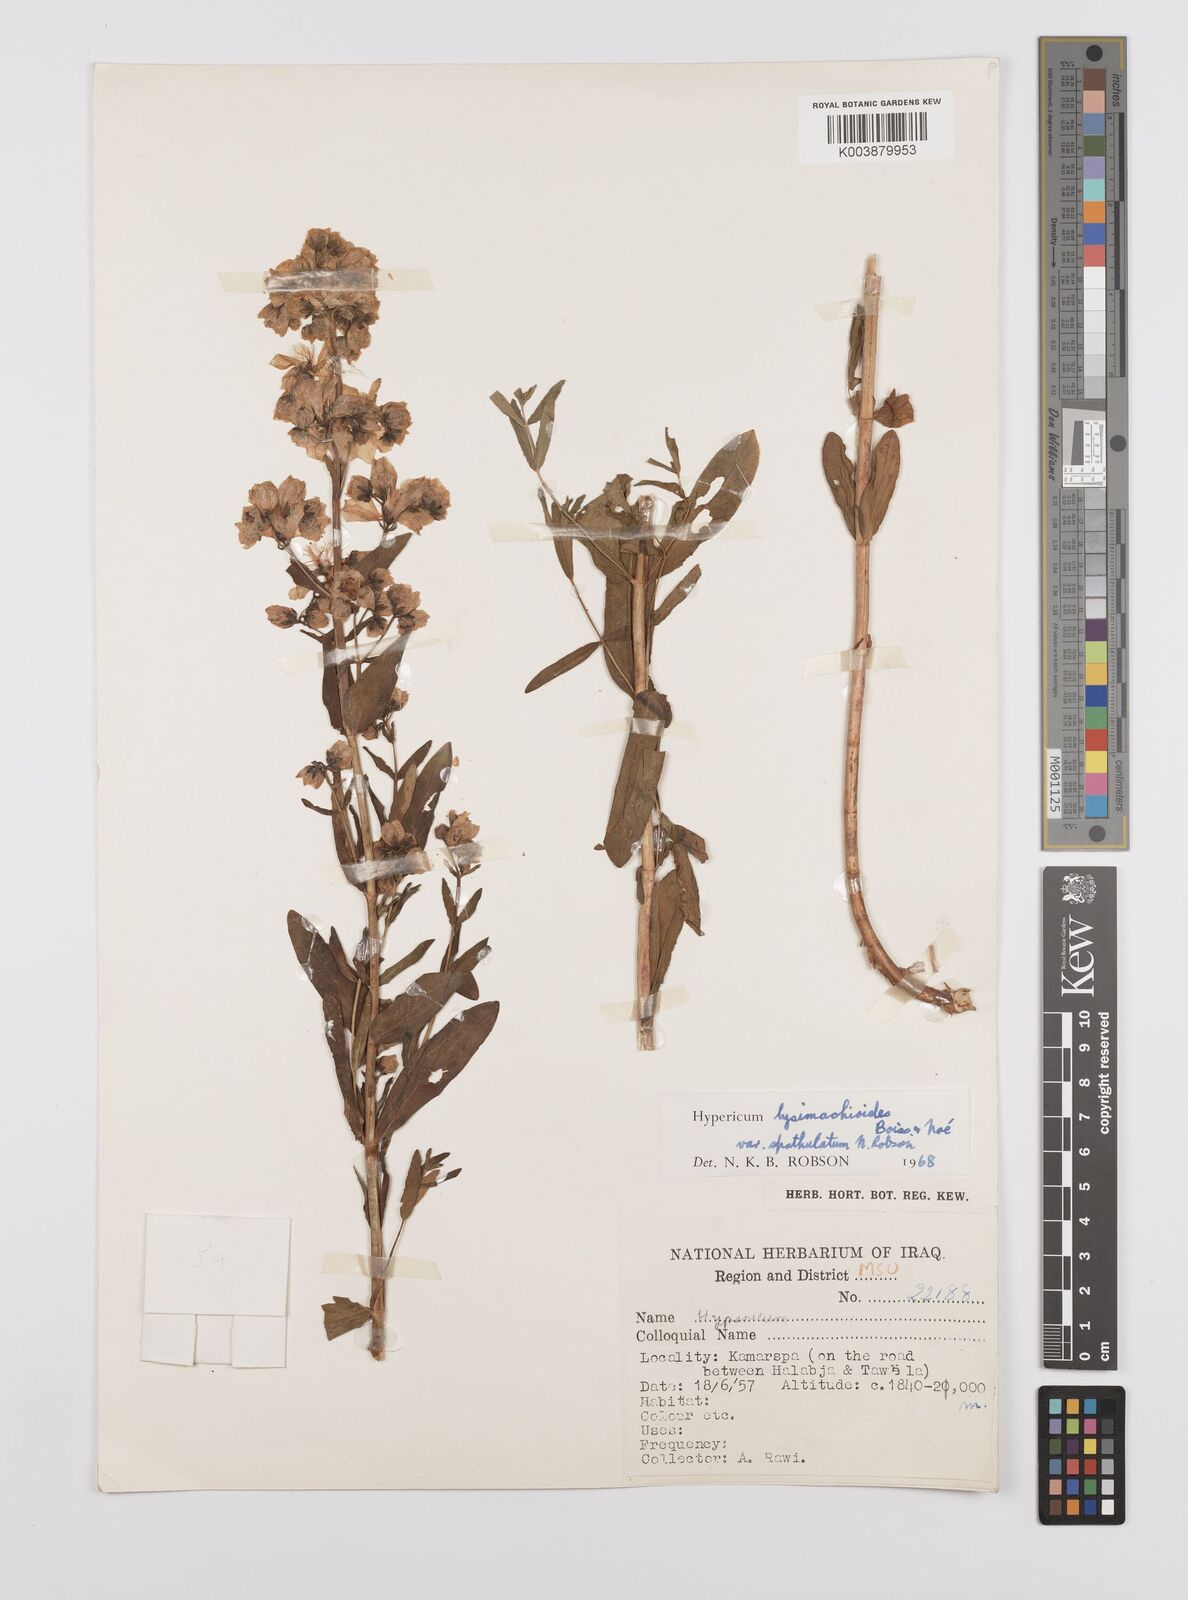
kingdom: Plantae
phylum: Tracheophyta
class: Magnoliopsida
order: Malpighiales
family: Hypericaceae
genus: Hypericum
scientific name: Hypericum lysimachioides
